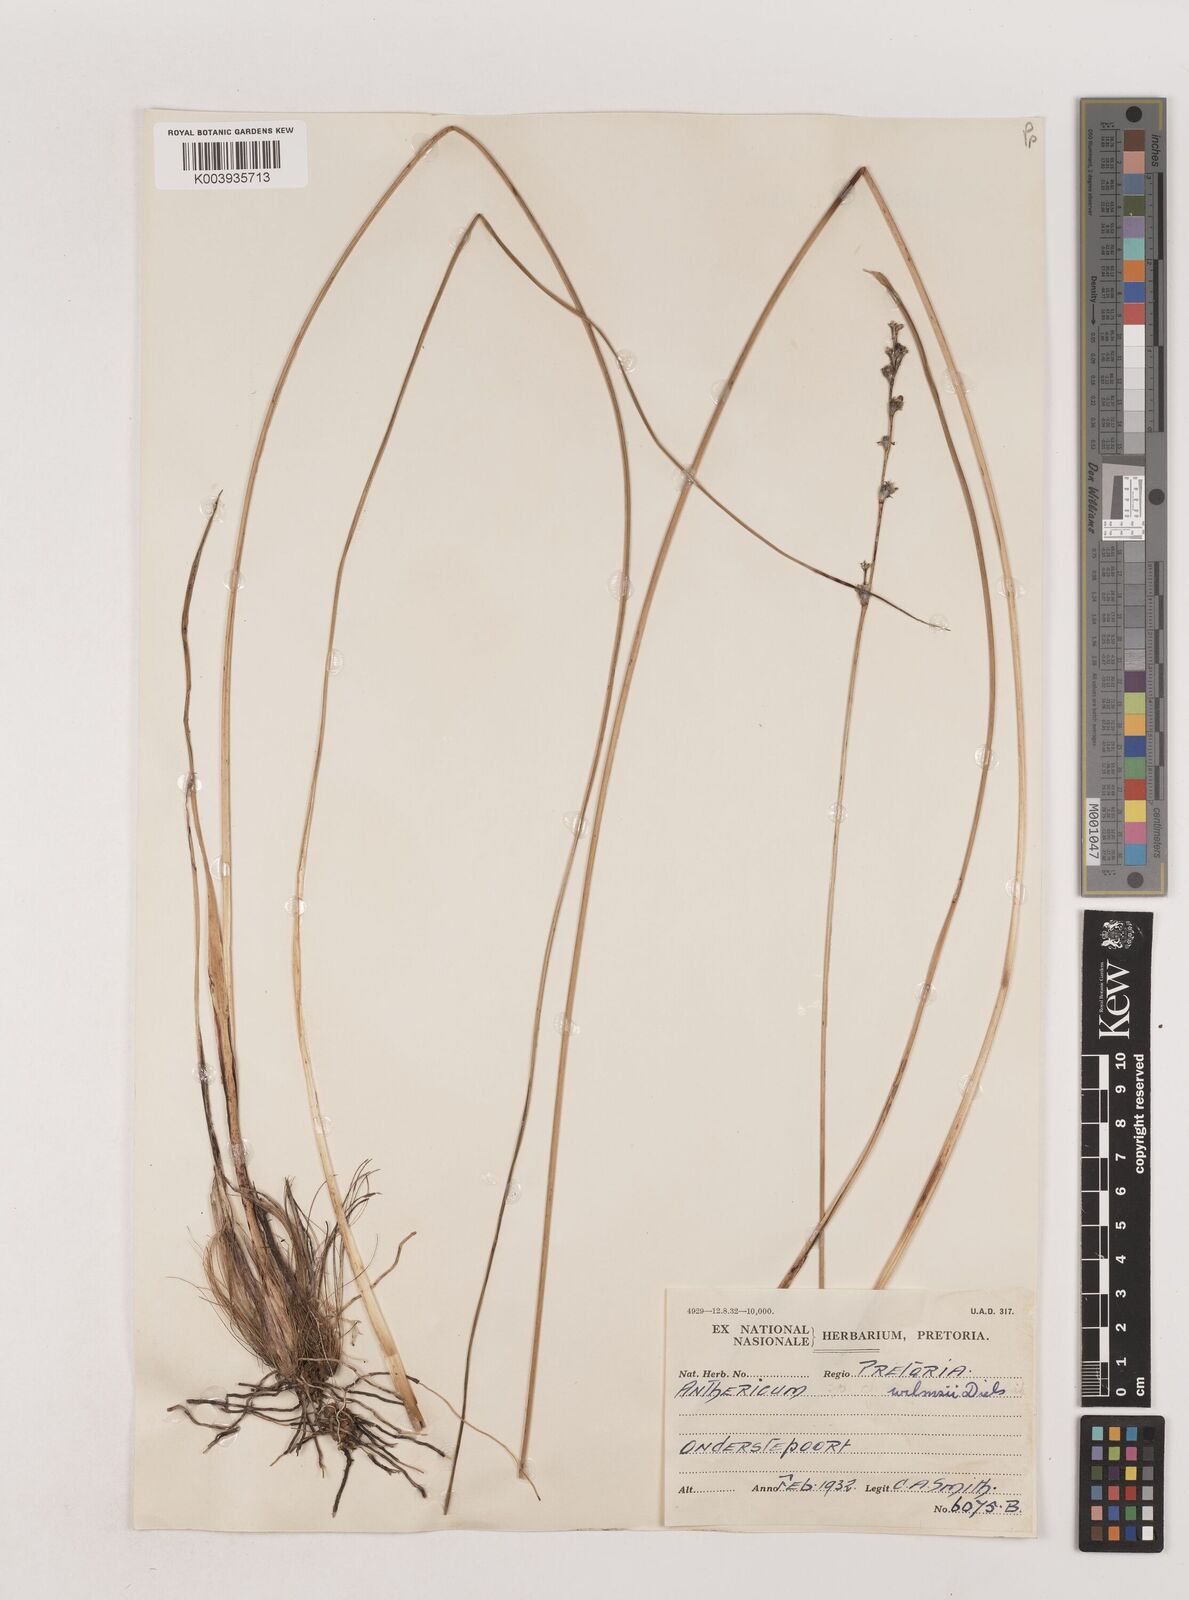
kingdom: Plantae
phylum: Tracheophyta
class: Liliopsida
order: Asparagales
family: Asparagaceae
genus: Chlorophytum
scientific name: Chlorophytum fasciculatum
